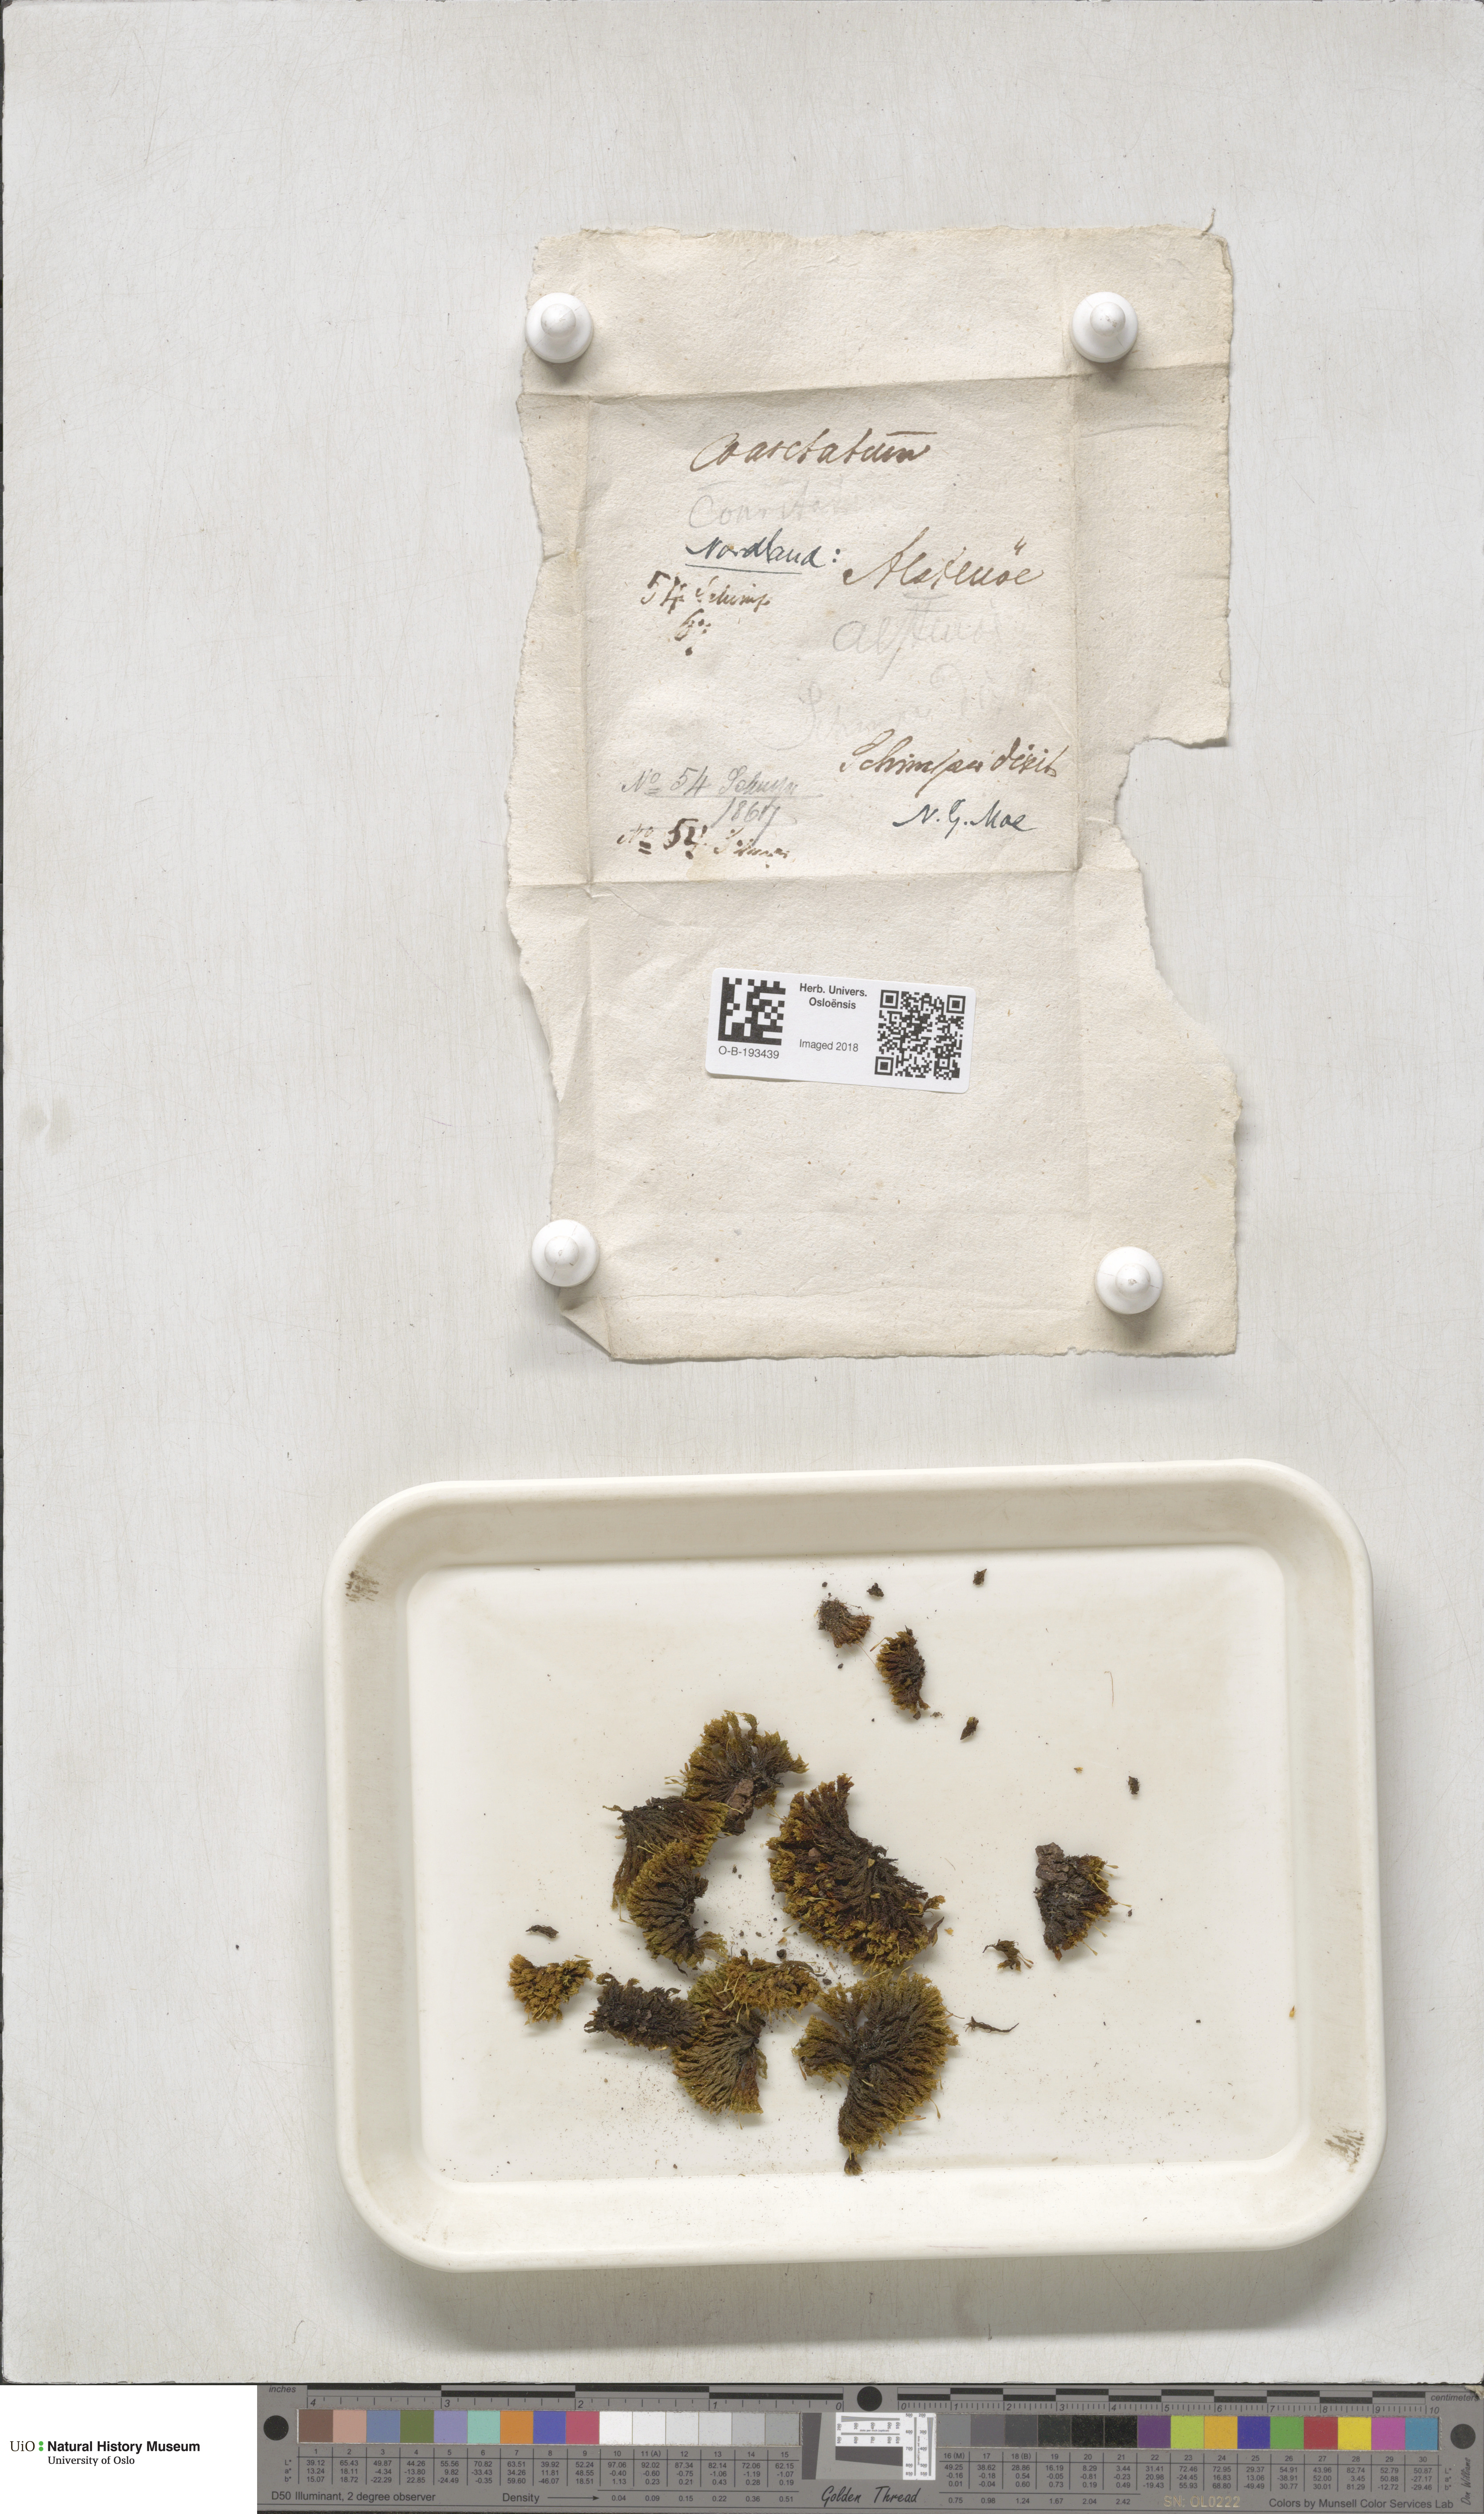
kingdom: Plantae
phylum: Bryophyta
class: Bryopsida
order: Orthotrichales
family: Orthotrichaceae
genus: Ulota
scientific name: Ulota bruchii
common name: Bruch's pincushion
